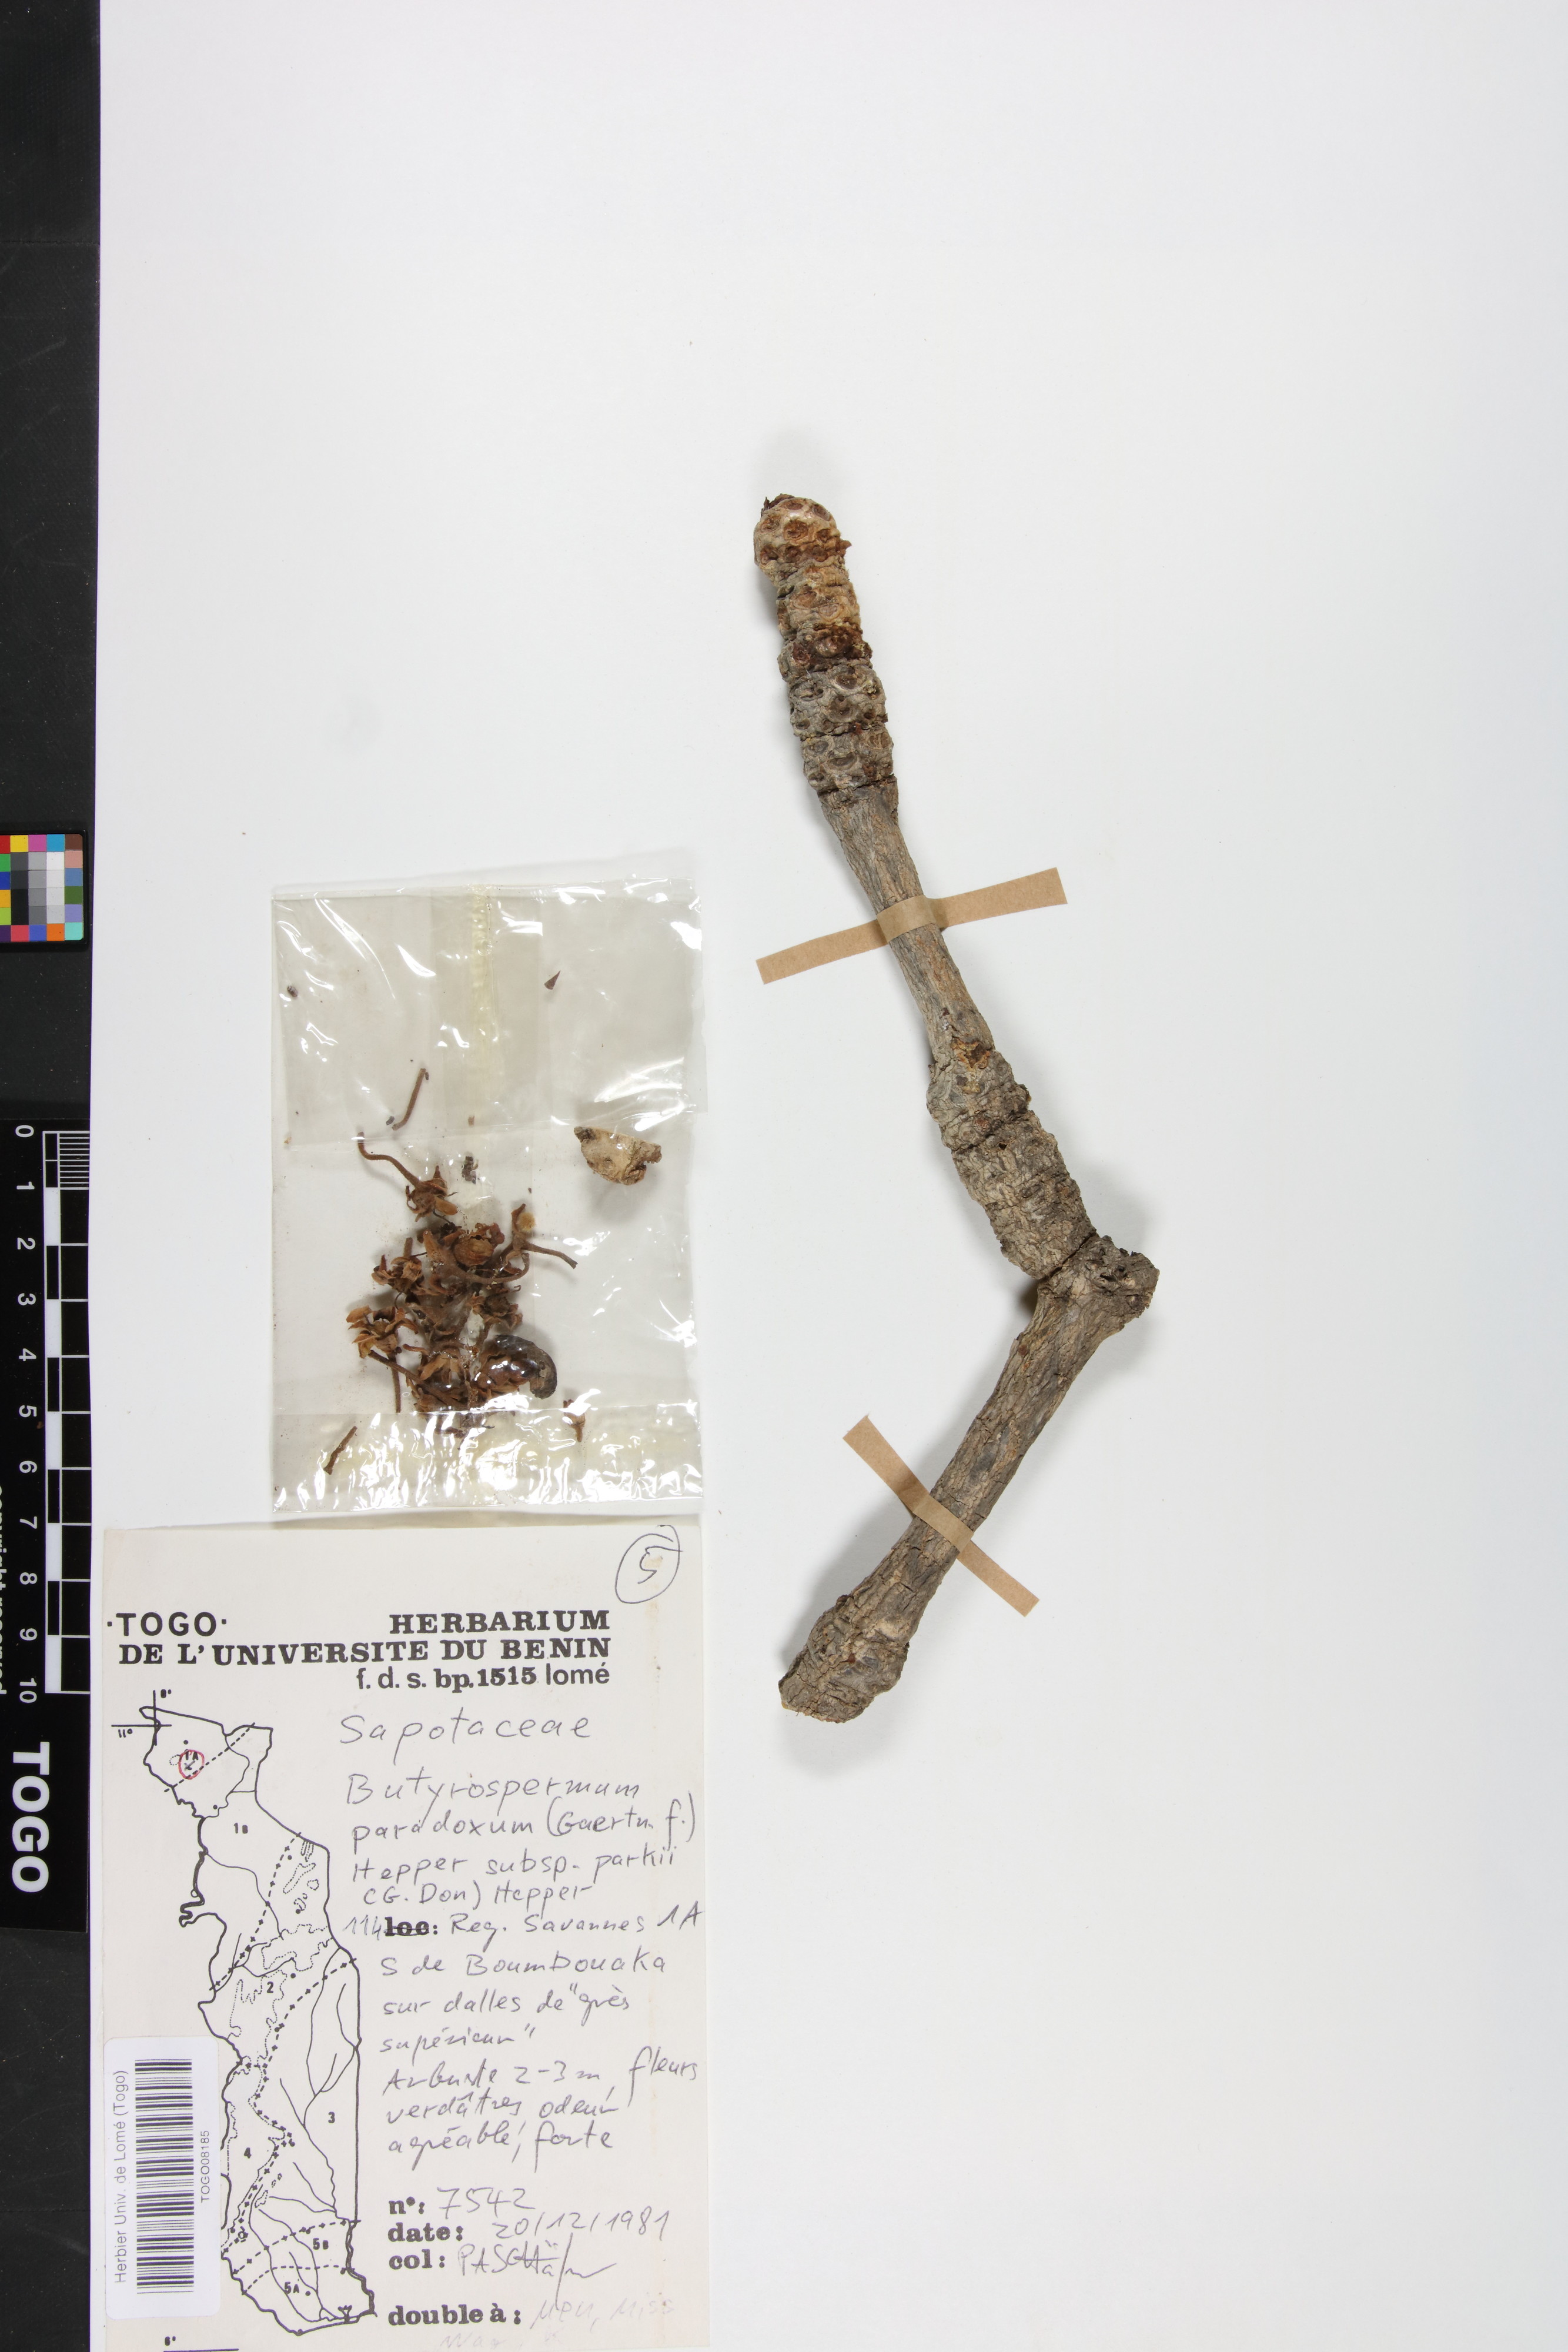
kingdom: Plantae
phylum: Tracheophyta
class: Magnoliopsida
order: Ericales
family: Sapotaceae
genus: Vitellaria
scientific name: Vitellaria paradoxa
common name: Shea butter tree
